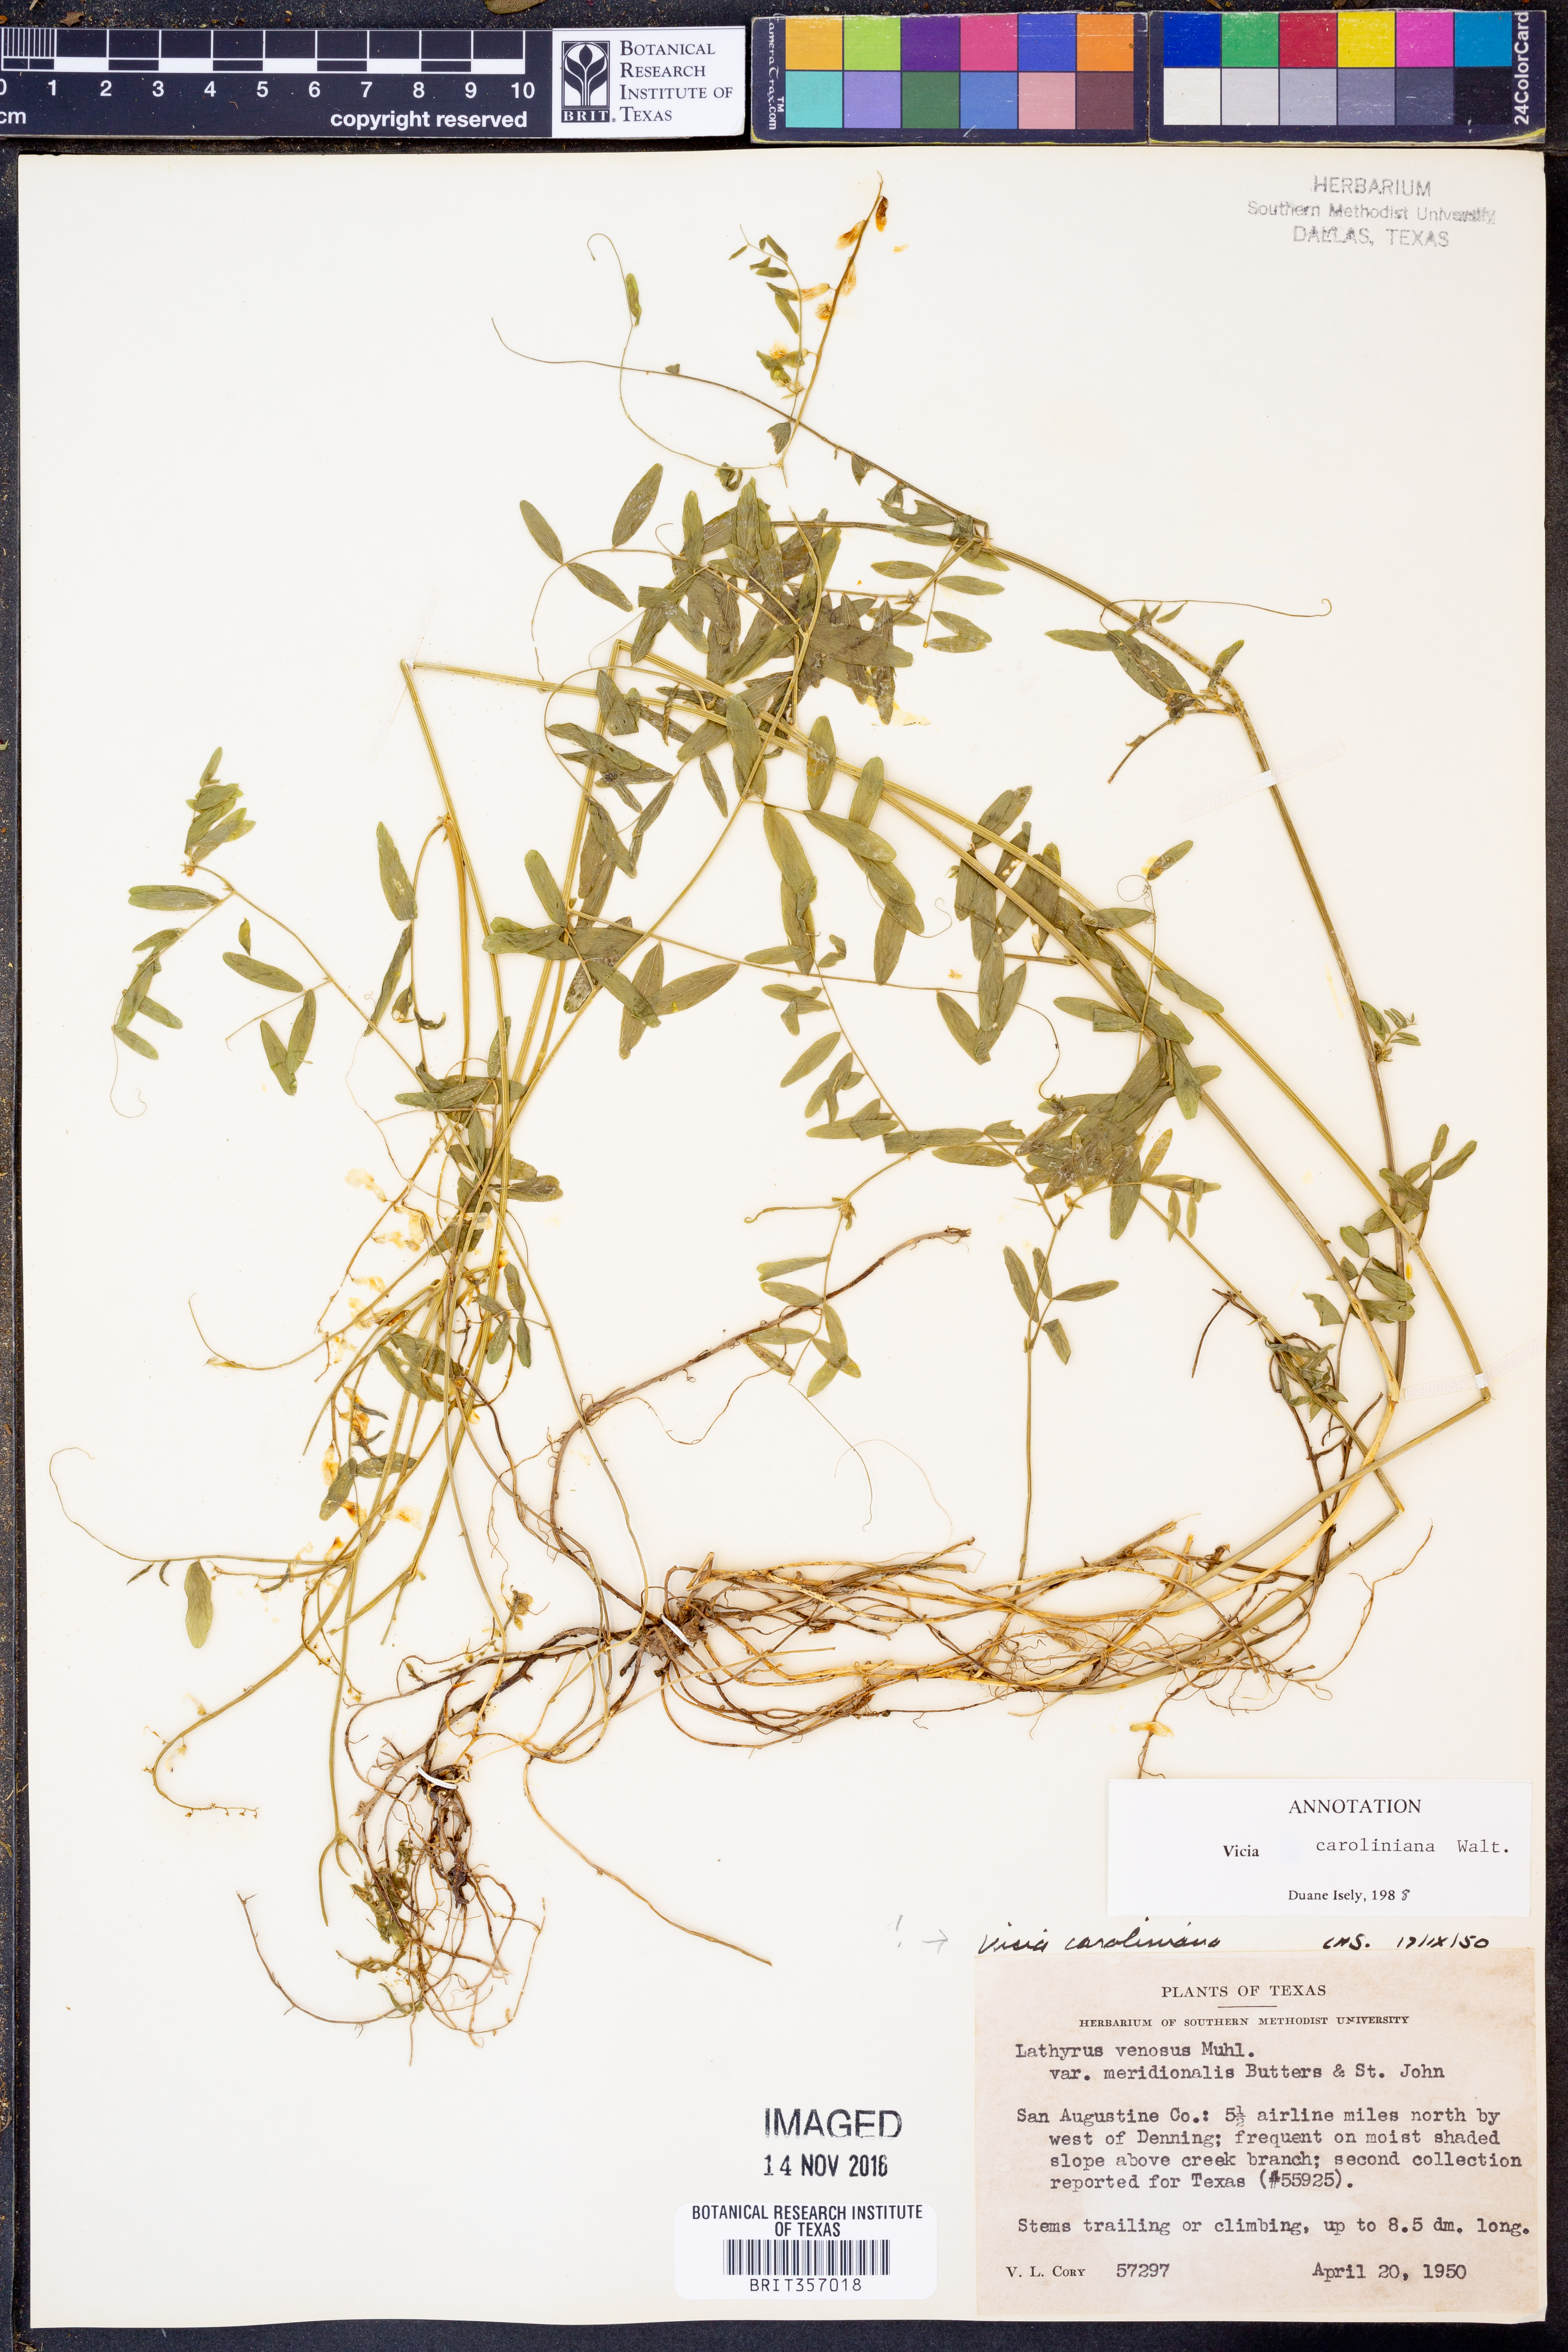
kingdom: Plantae
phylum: Tracheophyta
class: Magnoliopsida
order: Fabales
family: Fabaceae
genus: Vicia
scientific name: Vicia caroliniana
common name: Carolina vetch
